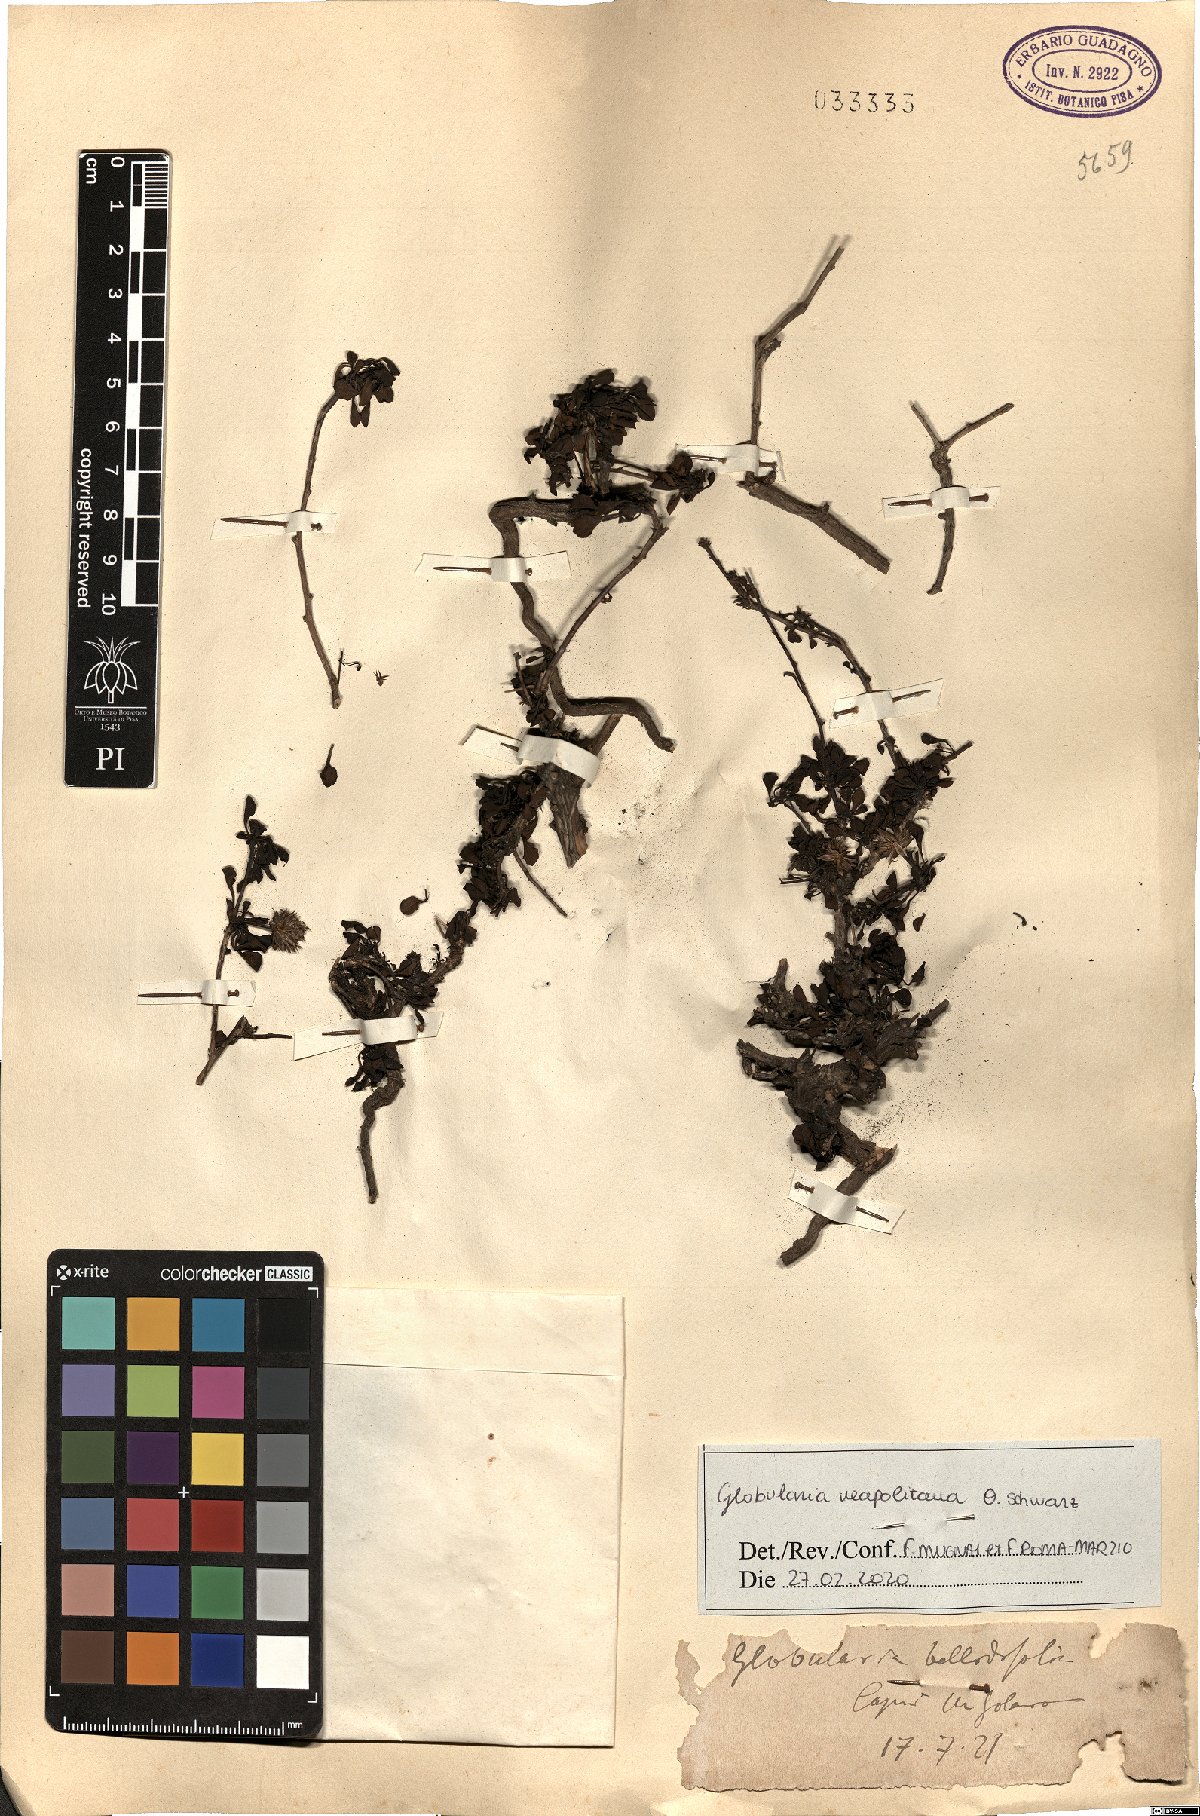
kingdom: Plantae
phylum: Tracheophyta
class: Magnoliopsida
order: Lamiales
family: Plantaginaceae
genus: Globularia
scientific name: Globularia cordifolia
